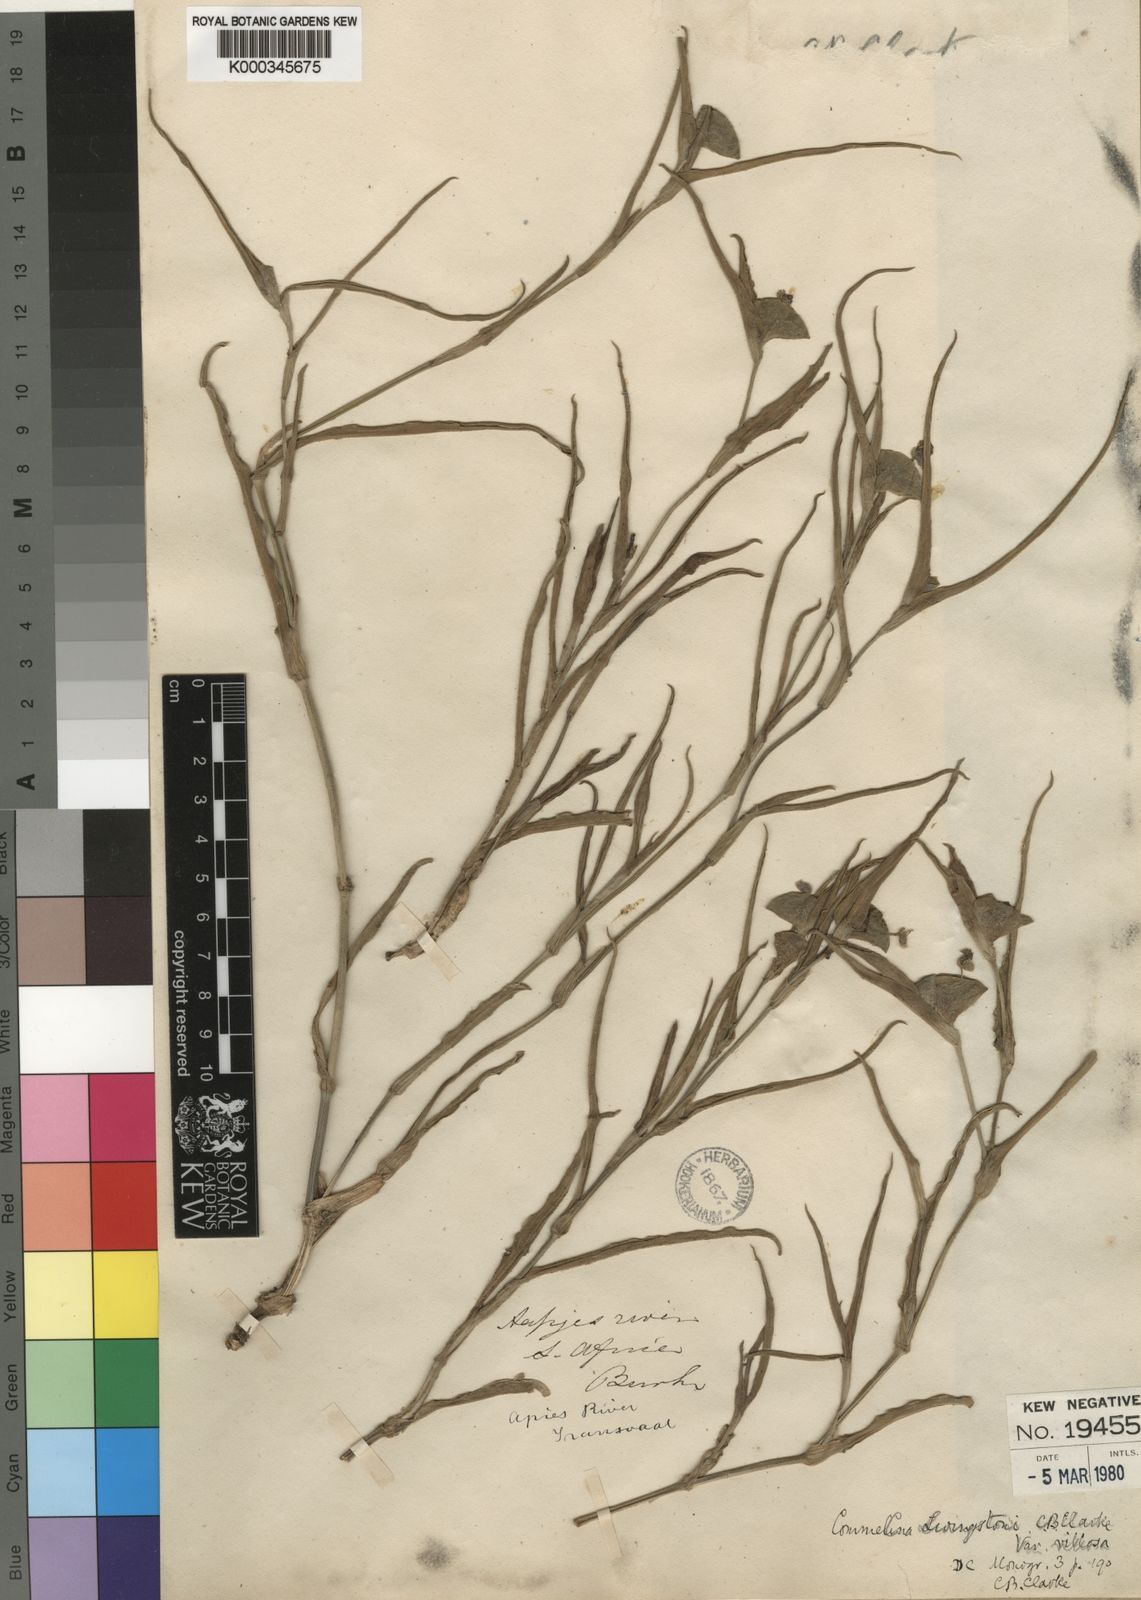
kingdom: Plantae
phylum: Tracheophyta
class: Liliopsida
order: Commelinales
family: Commelinaceae
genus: Commelina
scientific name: Commelina erecta
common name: Blousel blommetjie
